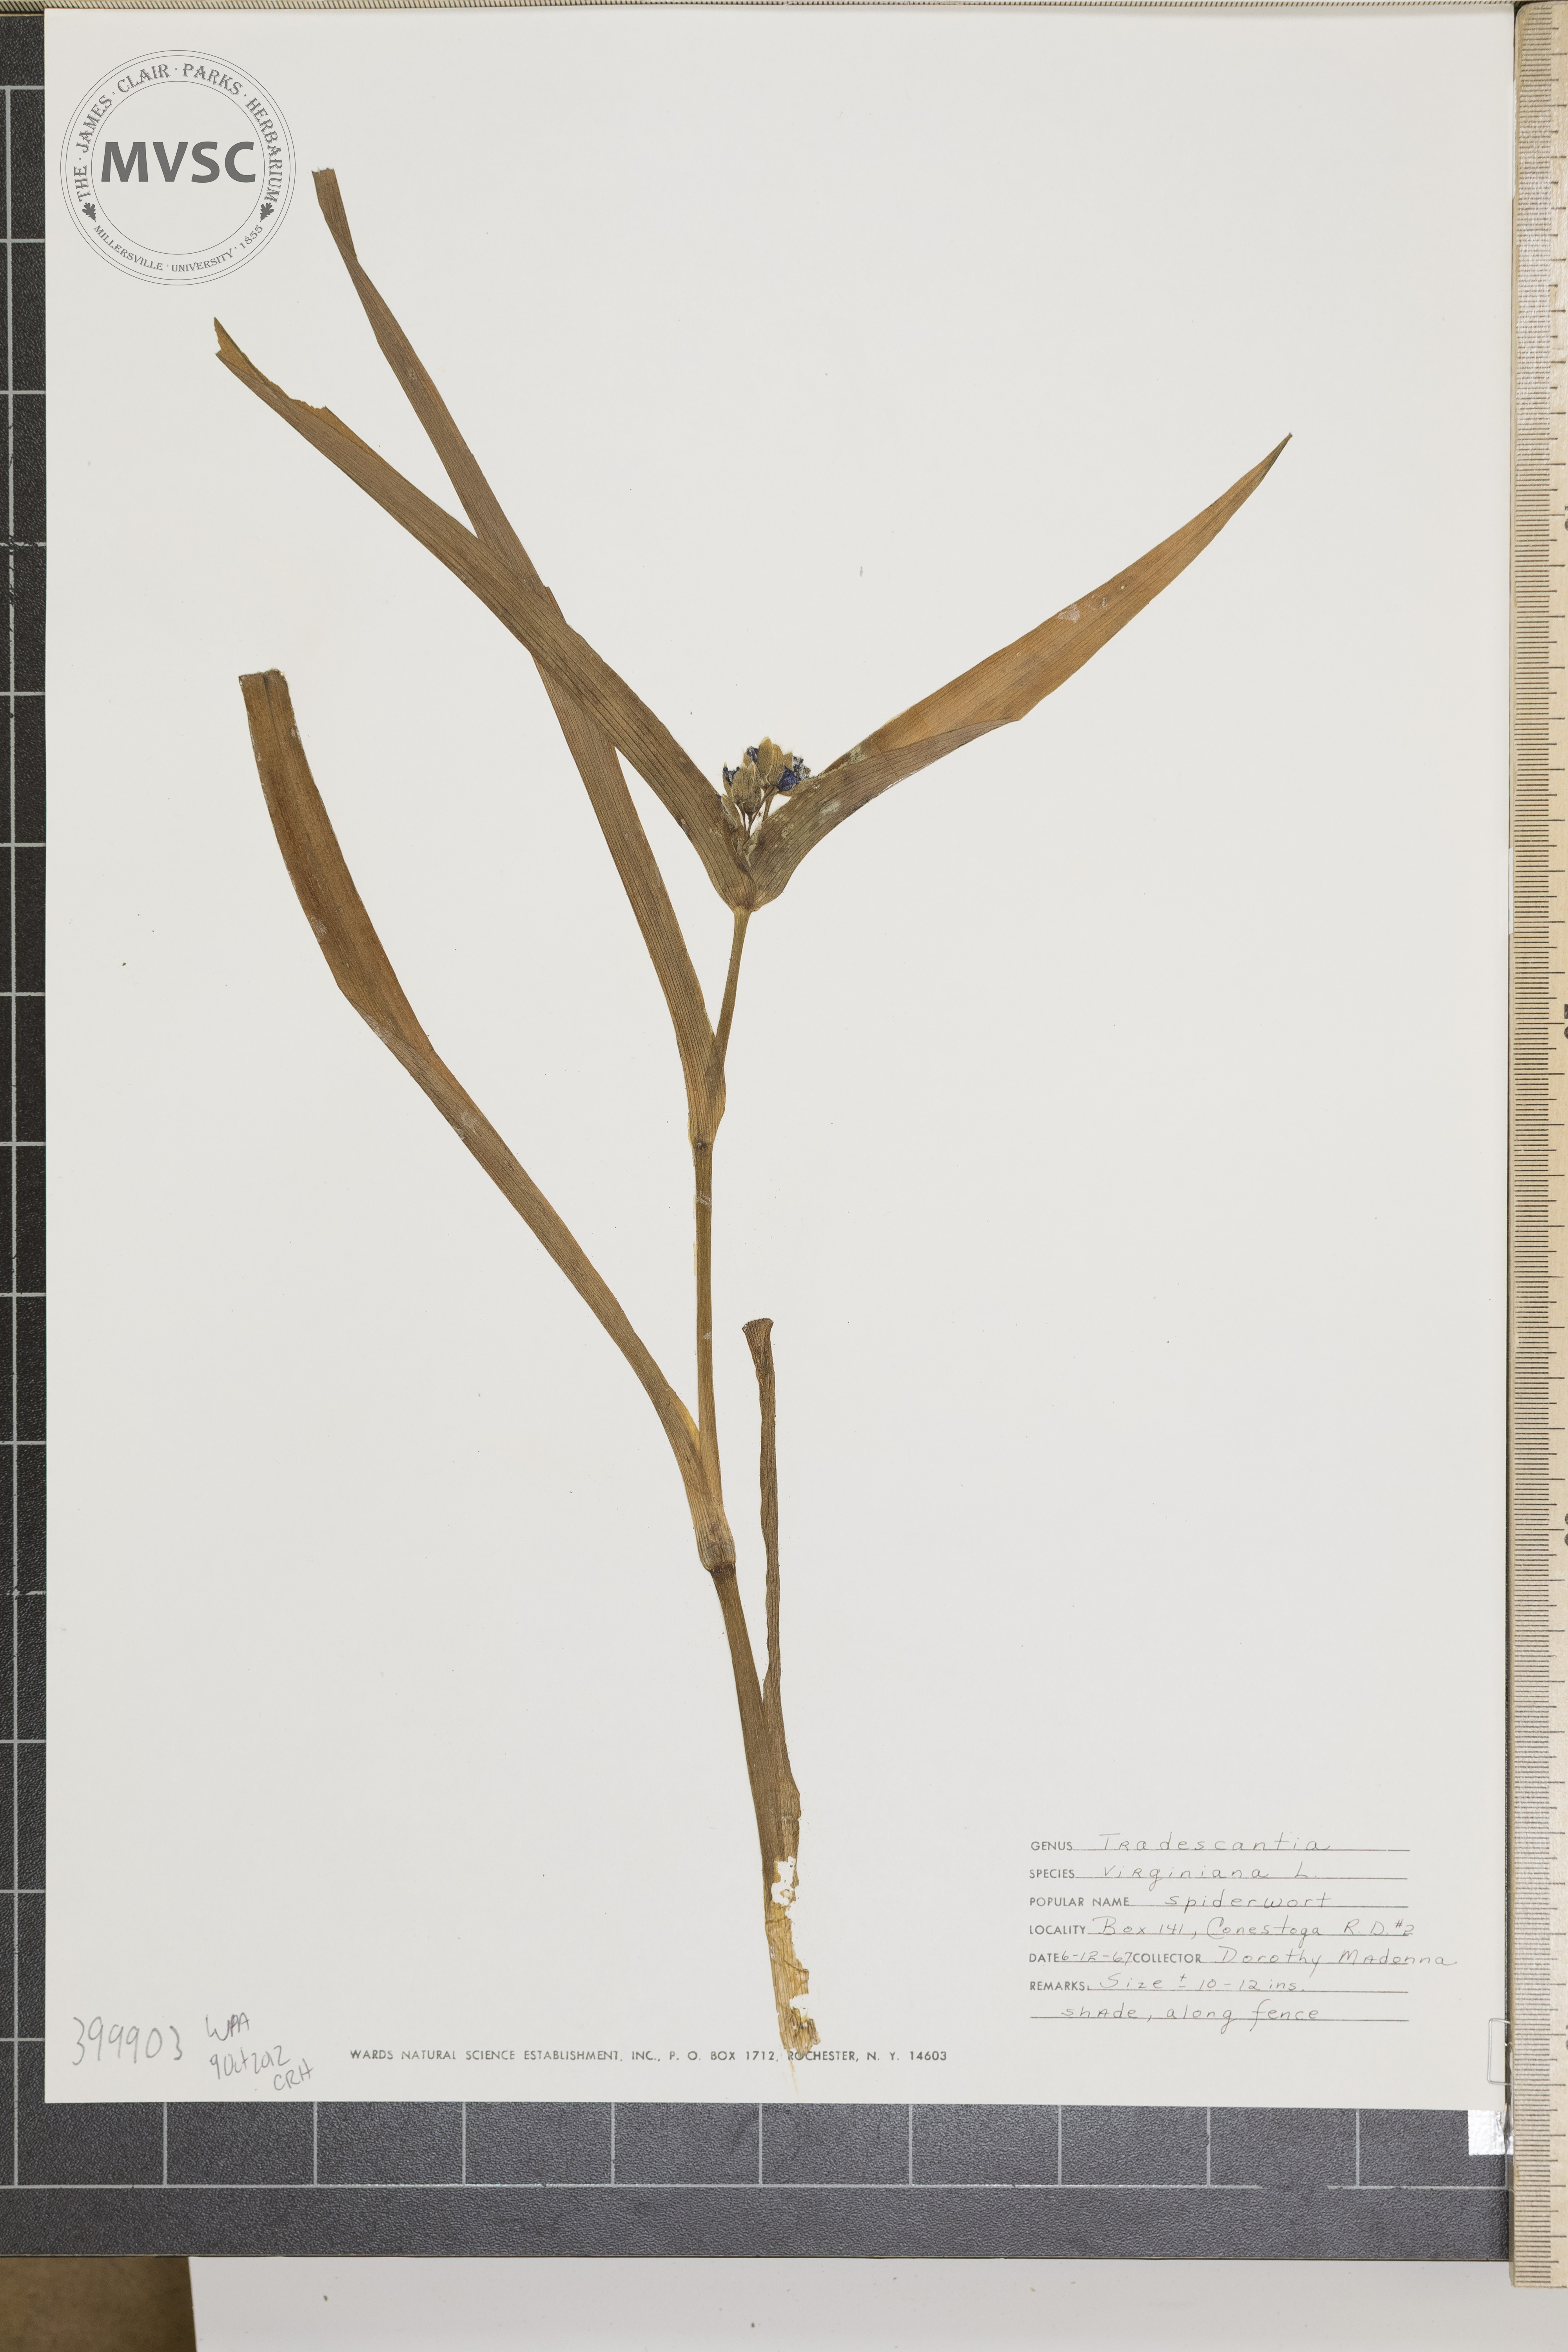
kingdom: Plantae
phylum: Tracheophyta
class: Liliopsida
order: Commelinales
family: Commelinaceae
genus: Tradescantia
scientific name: Tradescantia virginiana
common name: Virginia spiderwort
